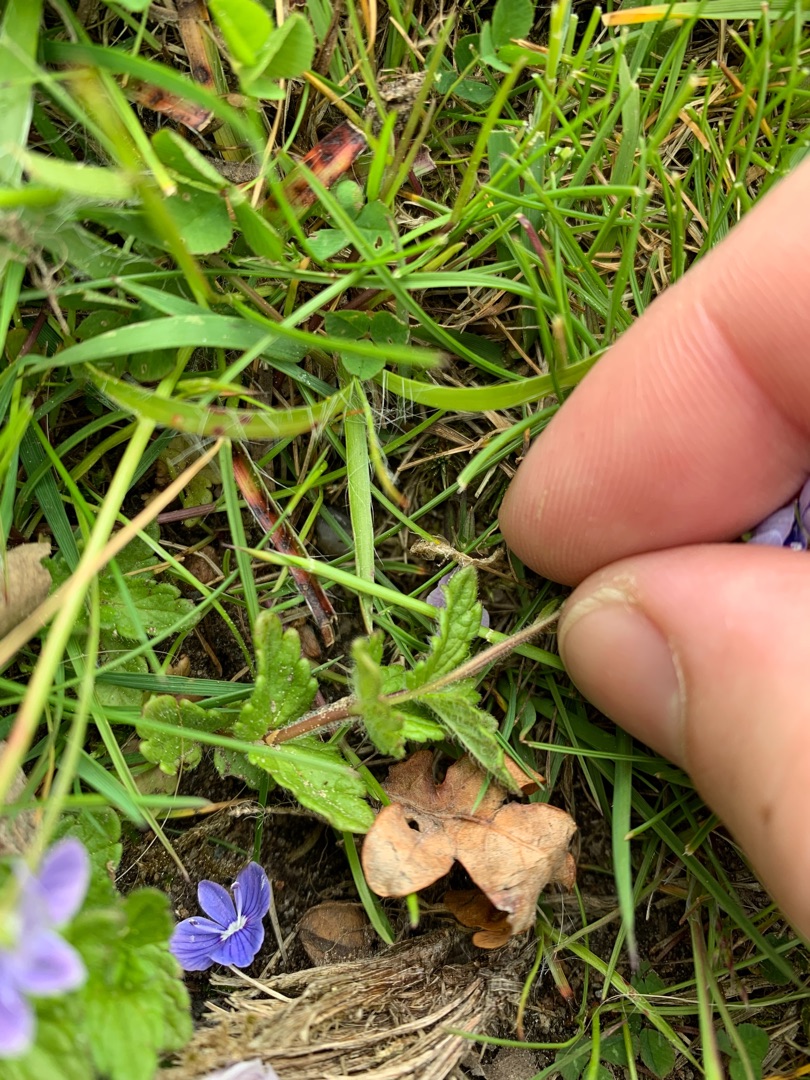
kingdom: Plantae
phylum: Tracheophyta
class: Magnoliopsida
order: Lamiales
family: Plantaginaceae
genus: Veronica
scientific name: Veronica chamaedrys
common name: Tveskægget ærenpris
